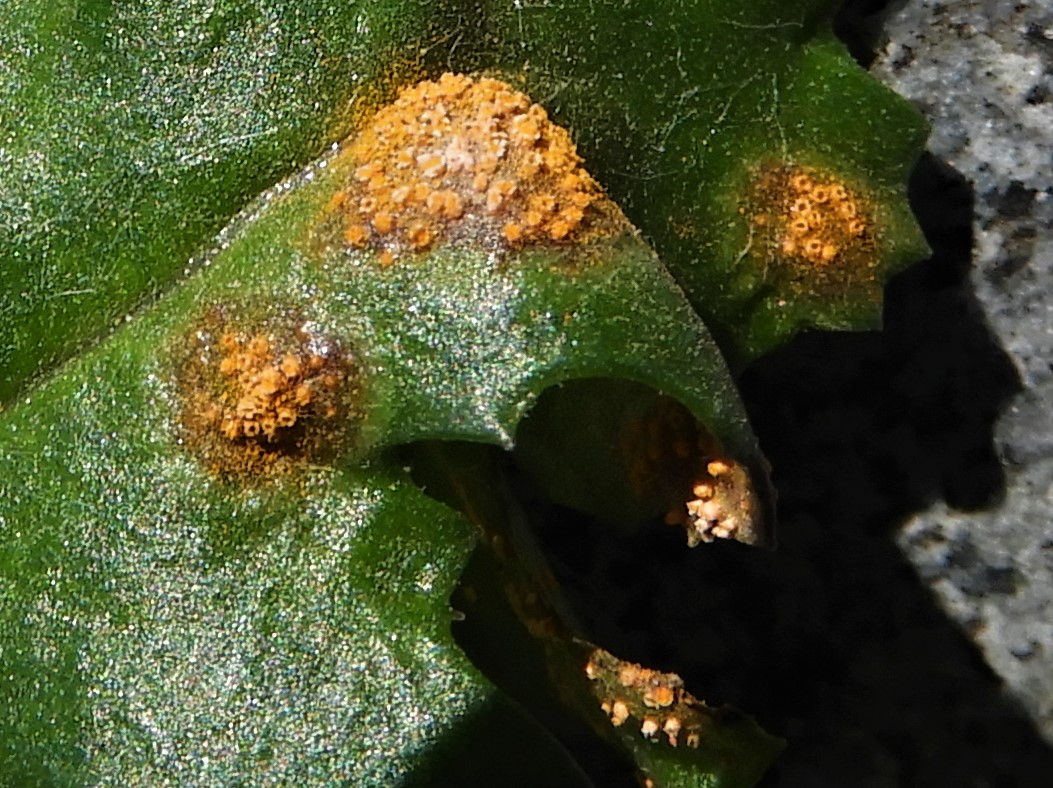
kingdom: Fungi
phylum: Basidiomycota
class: Pucciniomycetes
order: Pucciniales
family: Pucciniaceae
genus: Puccinia
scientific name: Puccinia violae
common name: viol-tvecellerust
